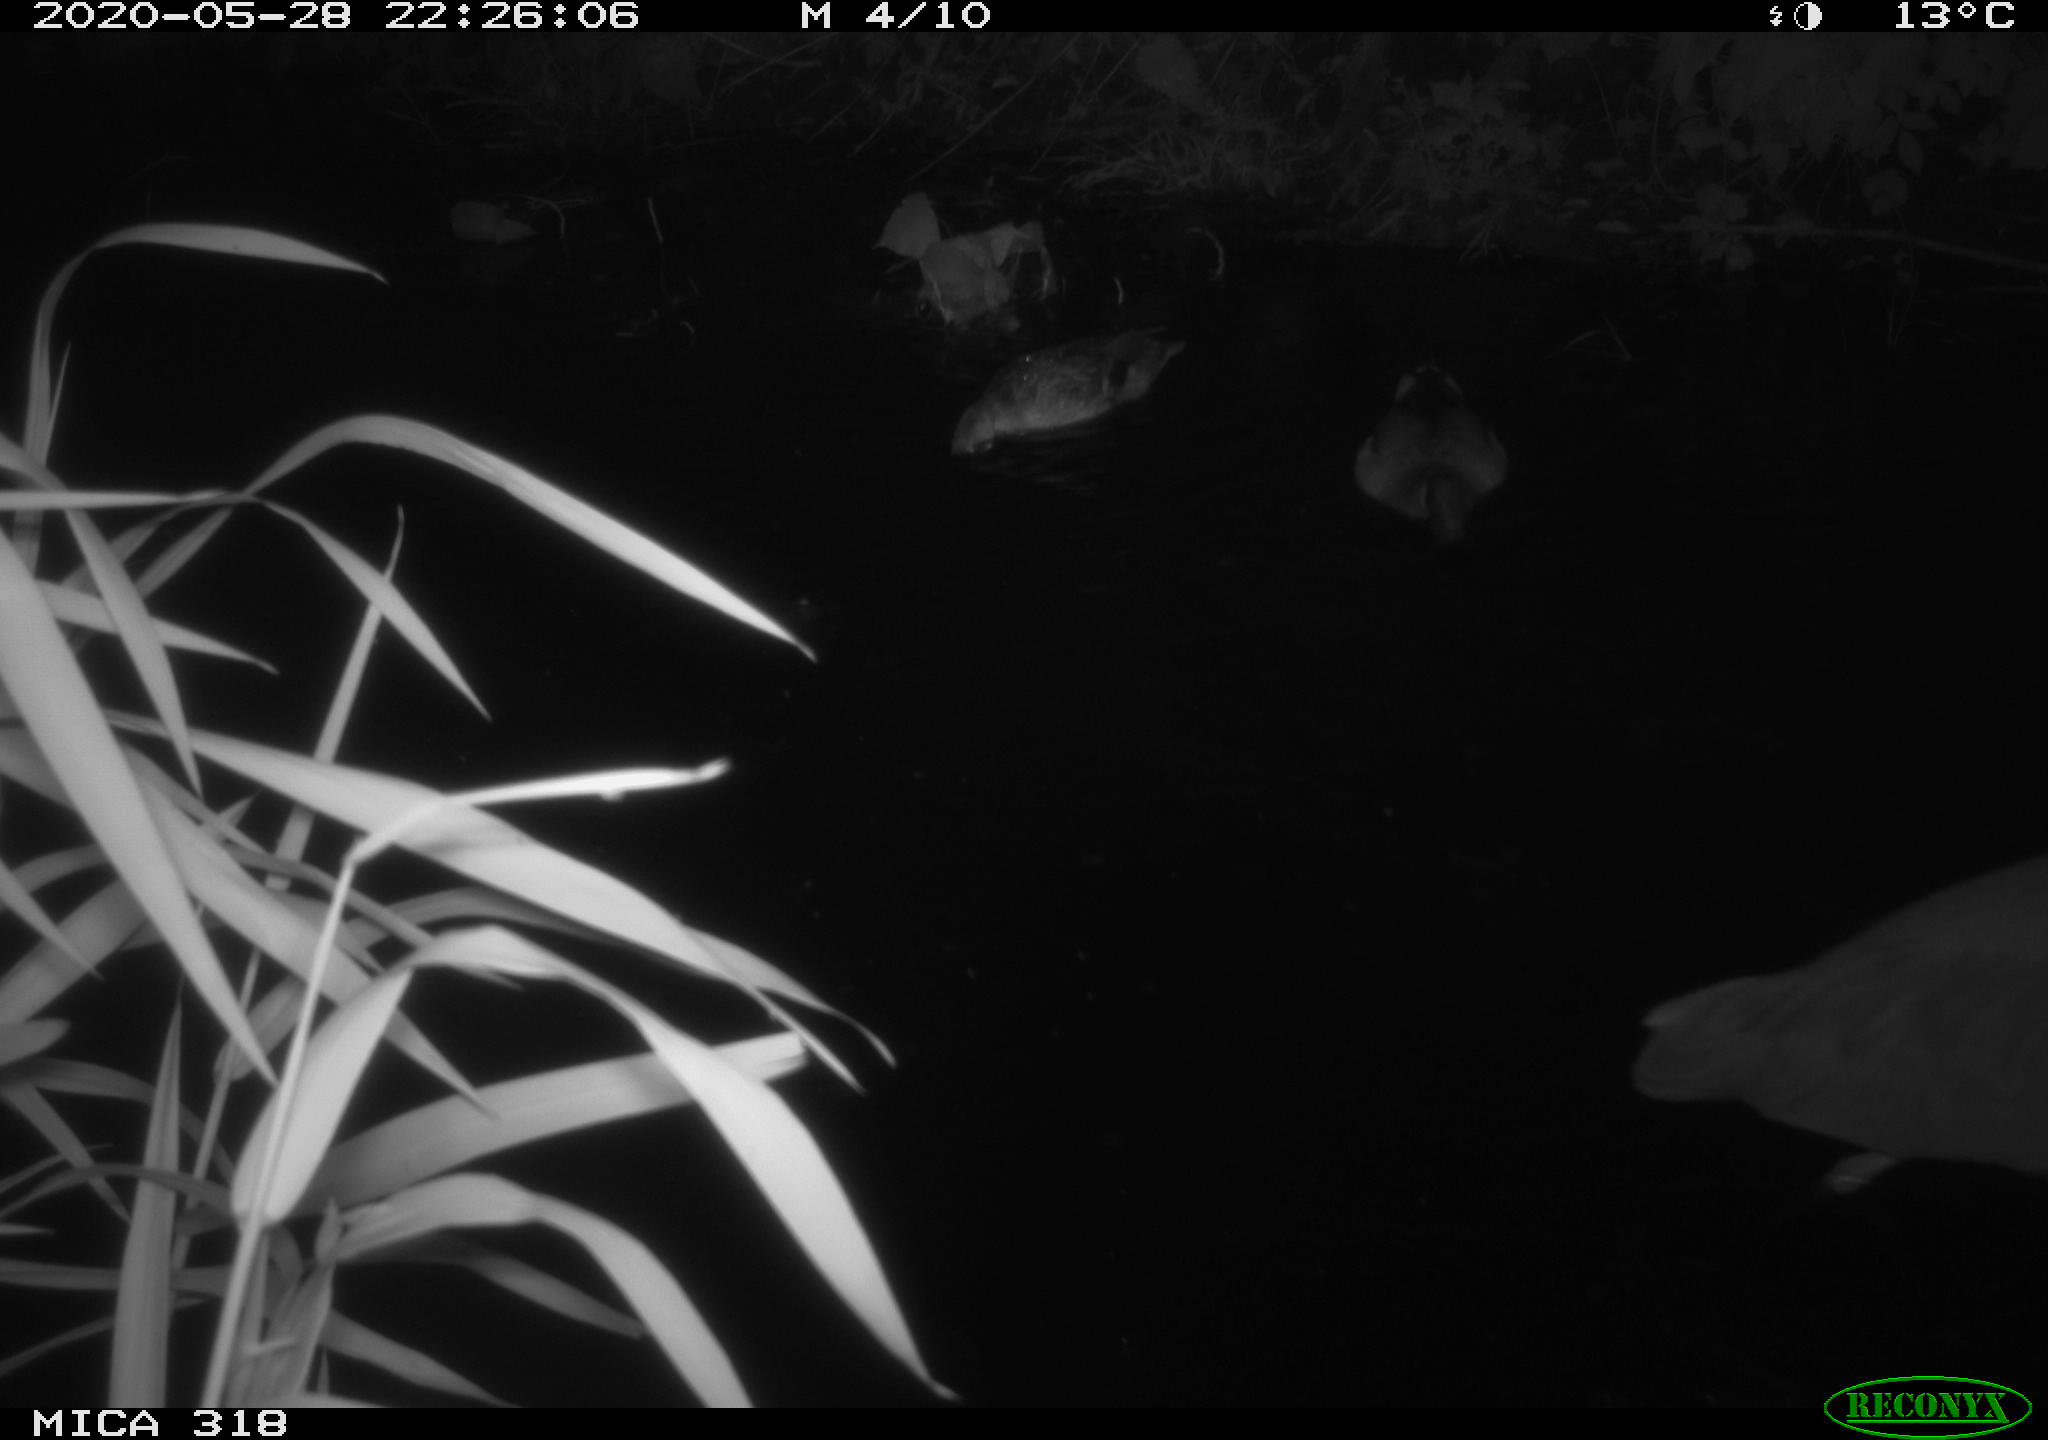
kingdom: Animalia
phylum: Chordata
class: Aves
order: Pelecaniformes
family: Ardeidae
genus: Ardea
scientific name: Ardea cinerea
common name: Grey heron
